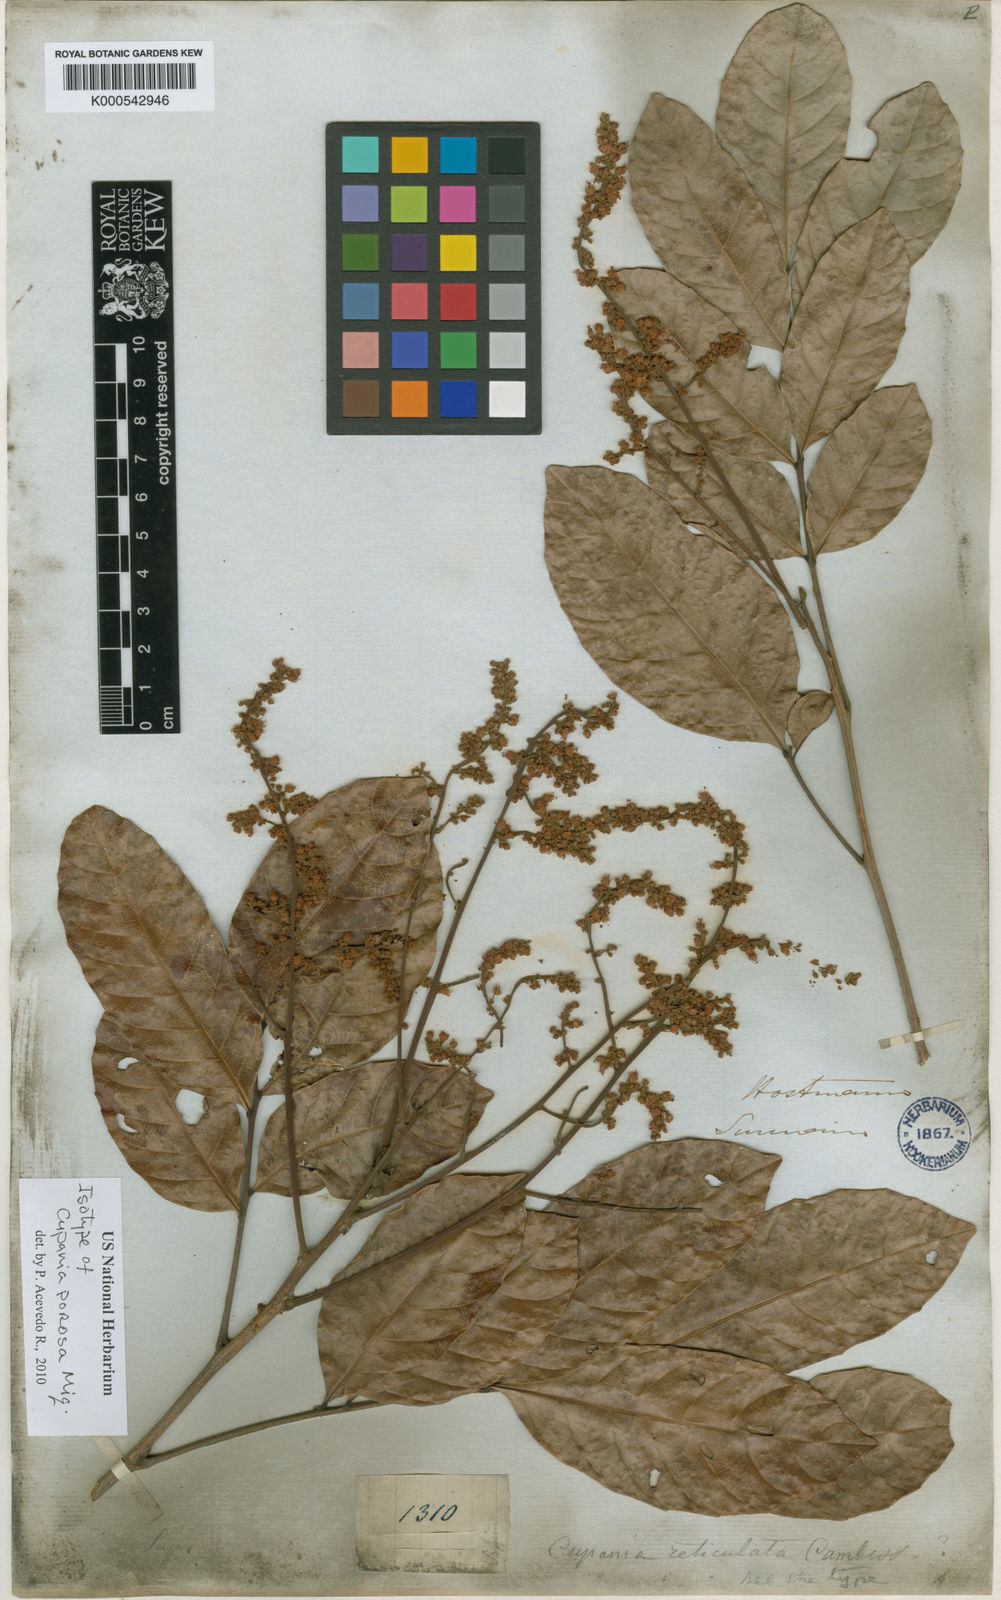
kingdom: Plantae
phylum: Tracheophyta
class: Magnoliopsida
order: Sapindales
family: Sapindaceae
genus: Matayba
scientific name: Matayba scrobiculata
